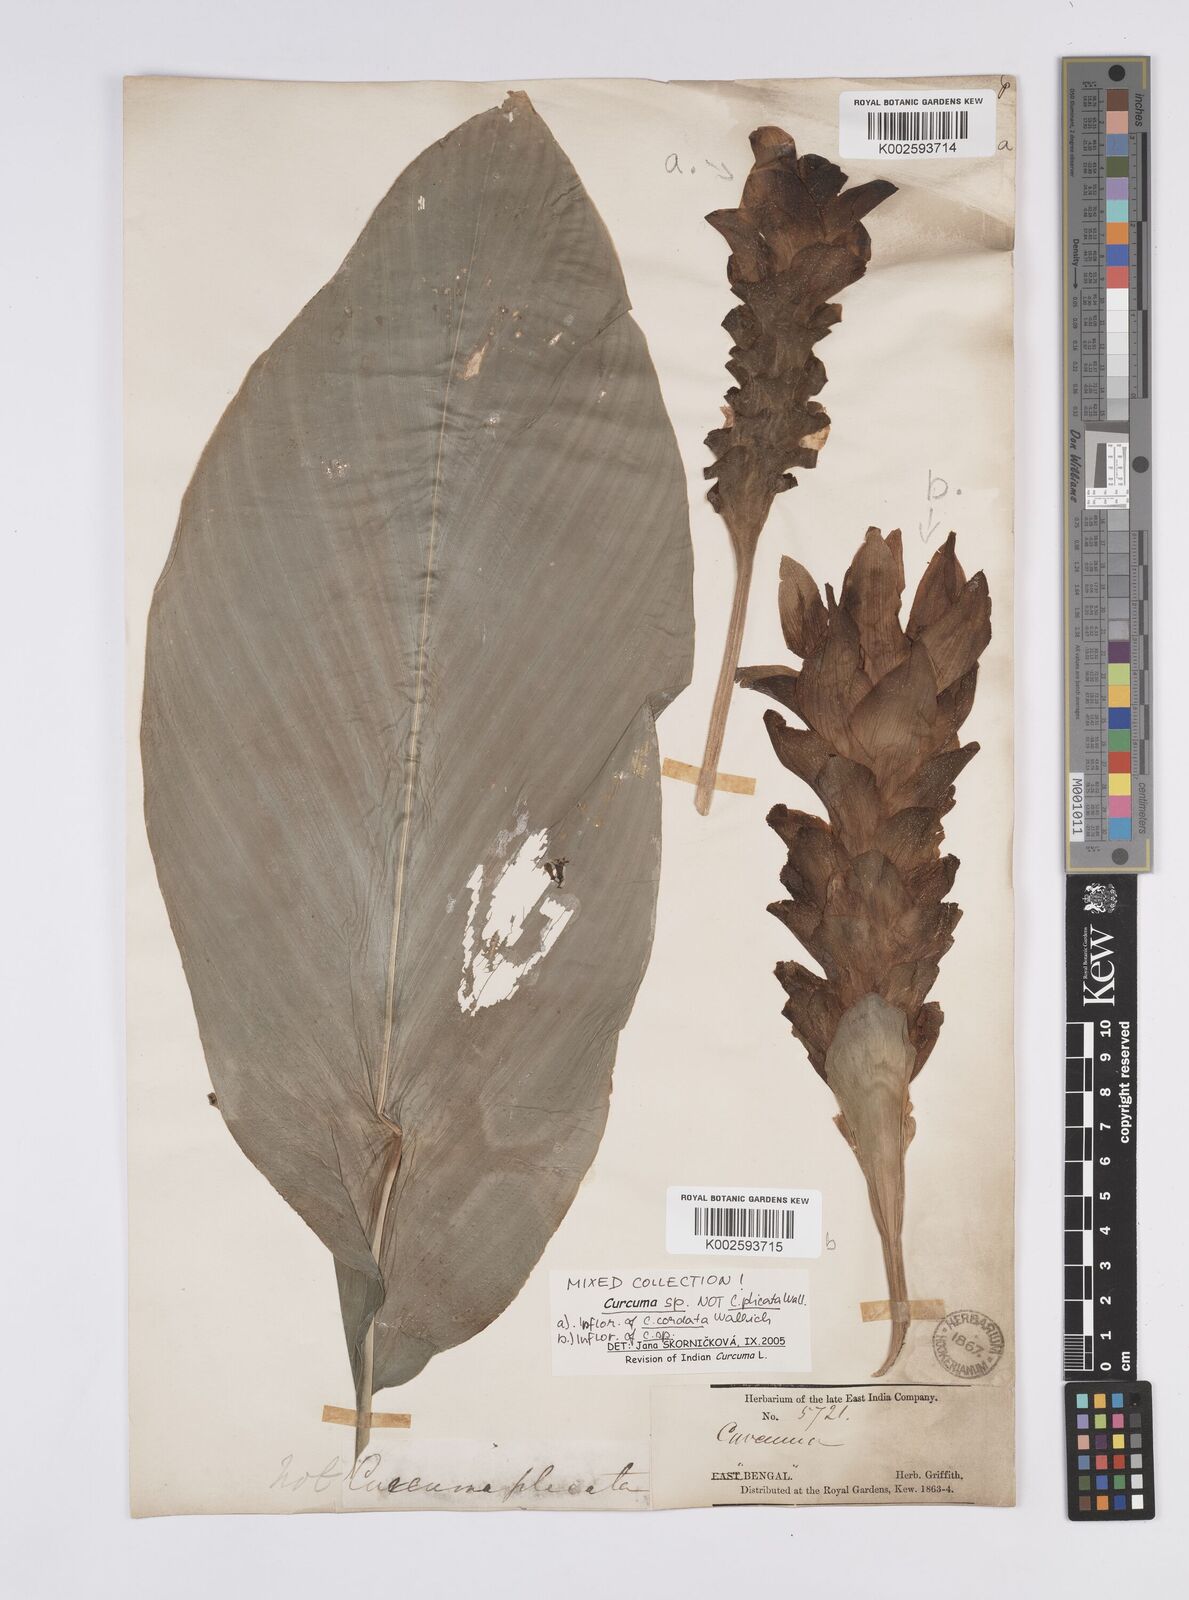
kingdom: Plantae
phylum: Tracheophyta
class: Liliopsida
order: Zingiberales
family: Zingiberaceae
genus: Curcuma
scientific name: Curcuma cordata
